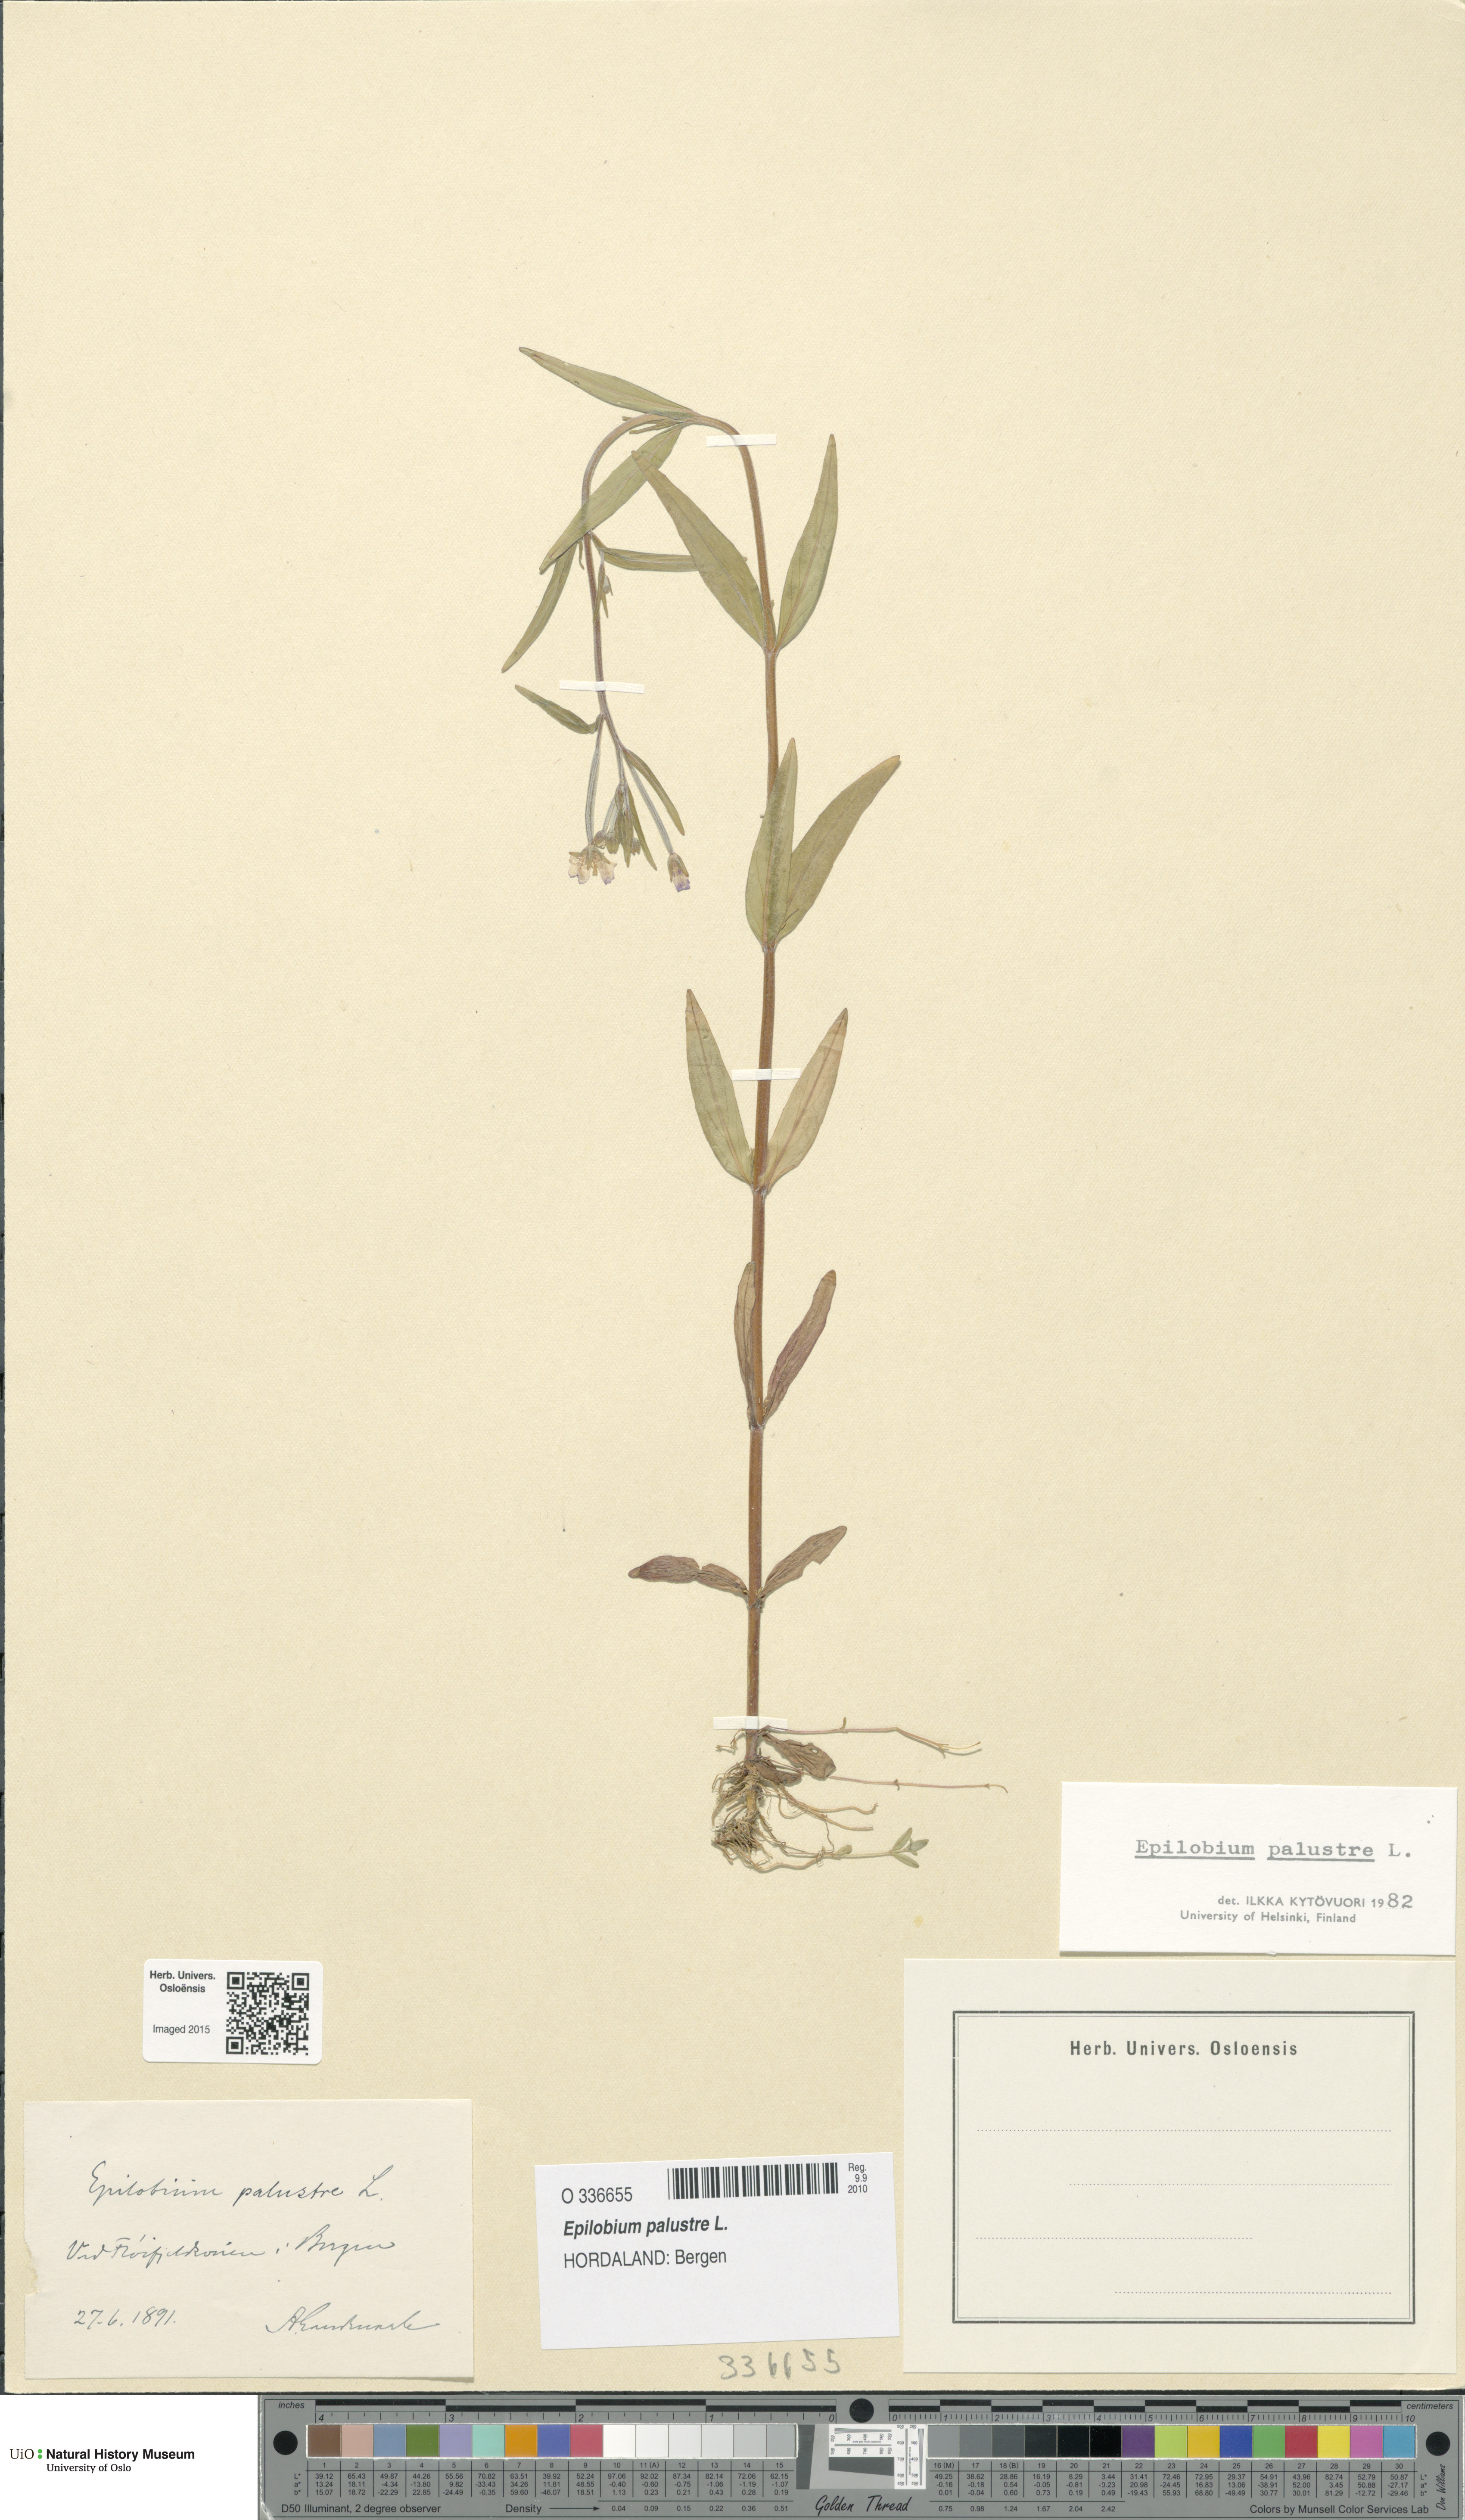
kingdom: Plantae
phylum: Tracheophyta
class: Magnoliopsida
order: Myrtales
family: Onagraceae
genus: Epilobium
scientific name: Epilobium palustre
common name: Marsh willowherb
